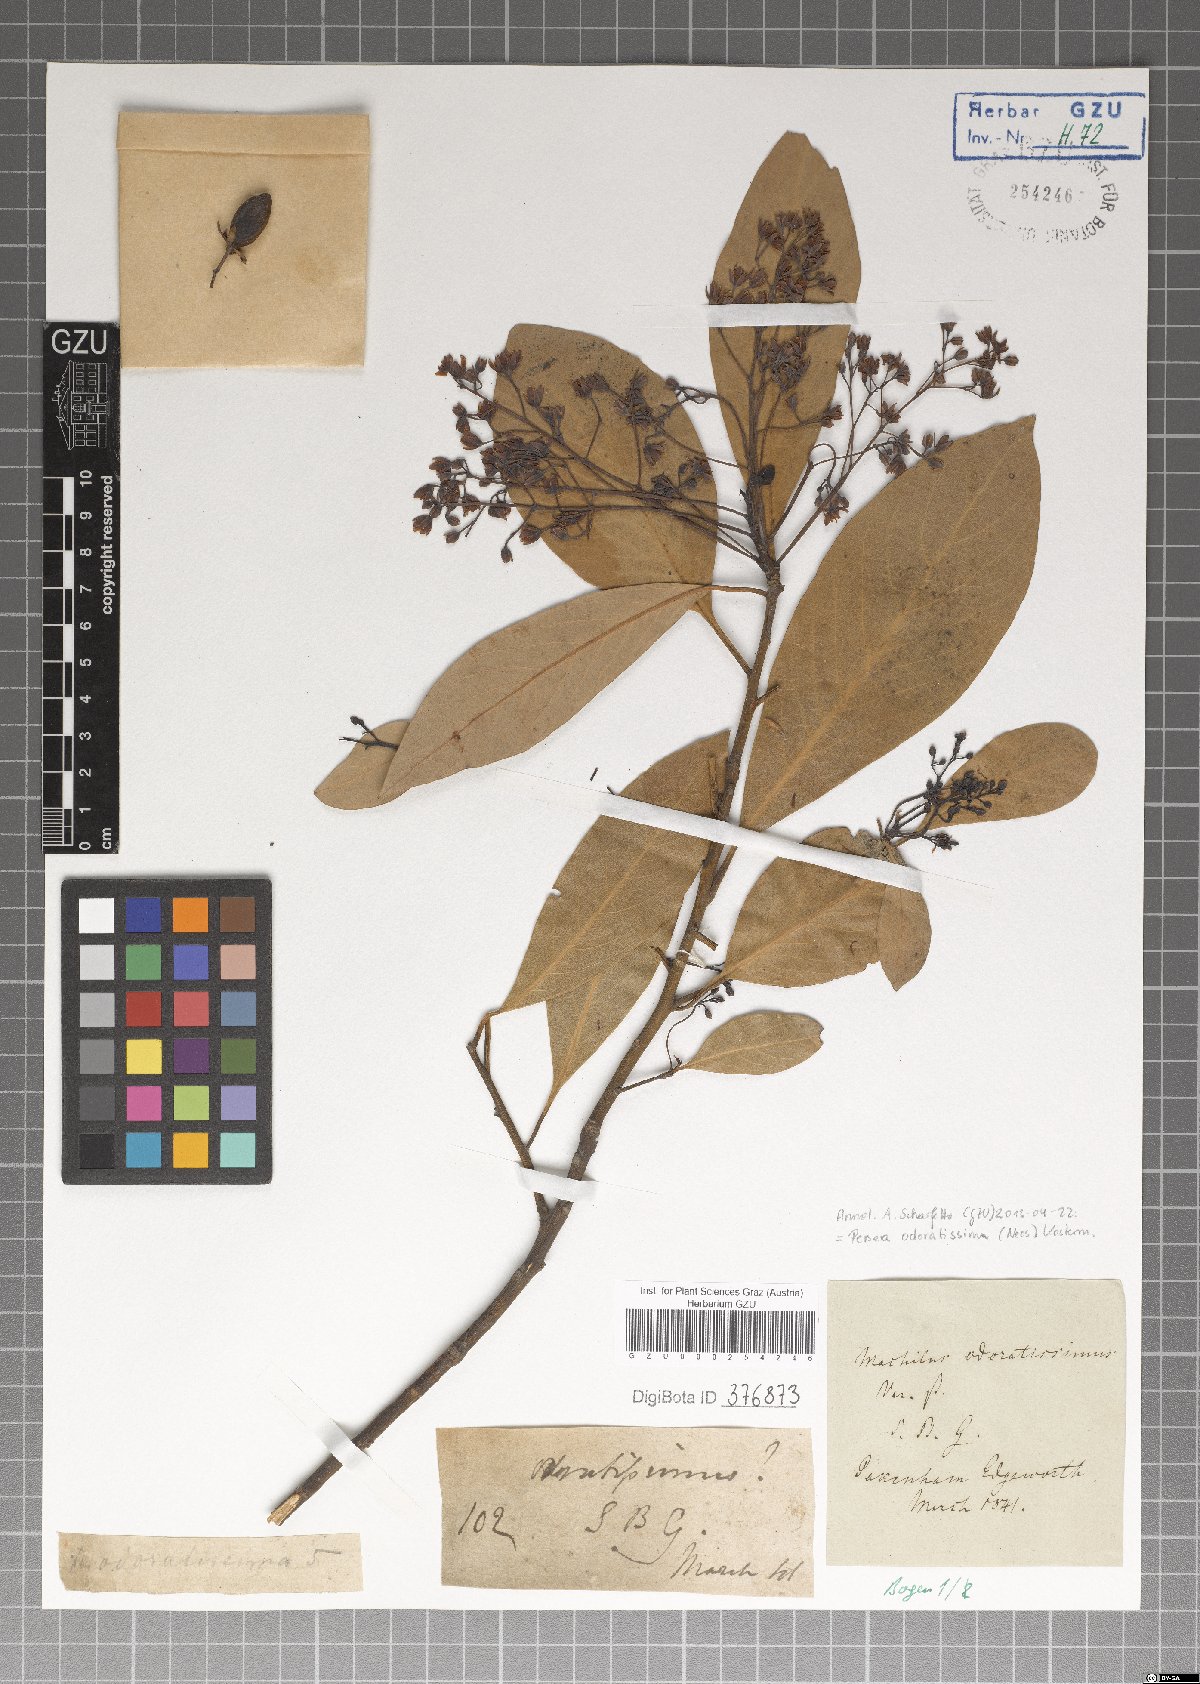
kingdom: Plantae
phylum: Tracheophyta
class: Magnoliopsida
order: Laurales
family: Lauraceae
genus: Machilus
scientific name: Machilus odoratissimus
